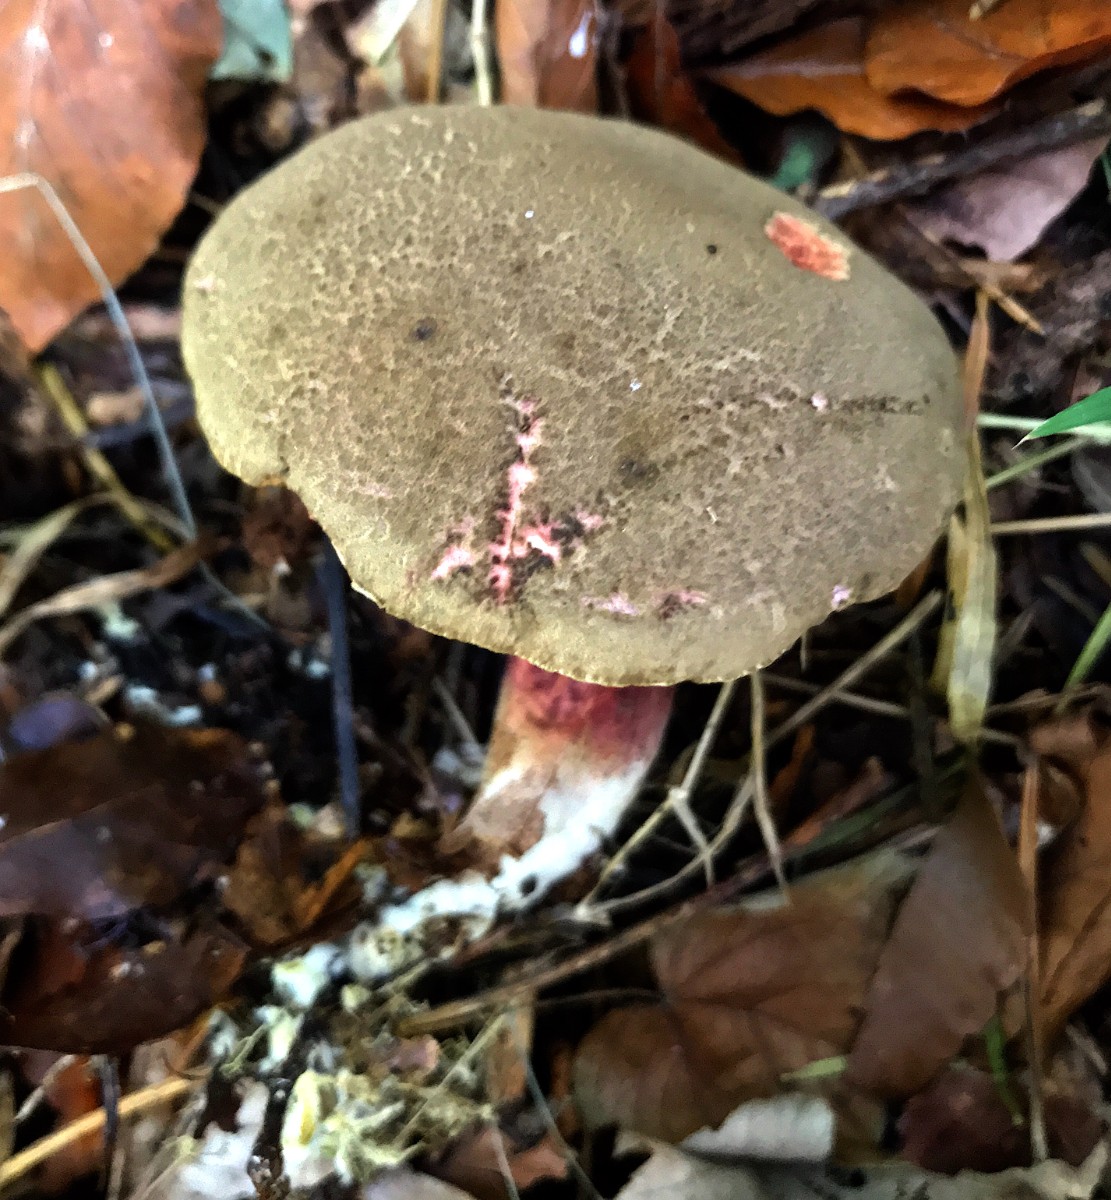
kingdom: Fungi
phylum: Basidiomycota
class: Agaricomycetes
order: Boletales
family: Boletaceae
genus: Xerocomellus
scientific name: Xerocomellus chrysenteron
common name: rødsprukken rørhat
